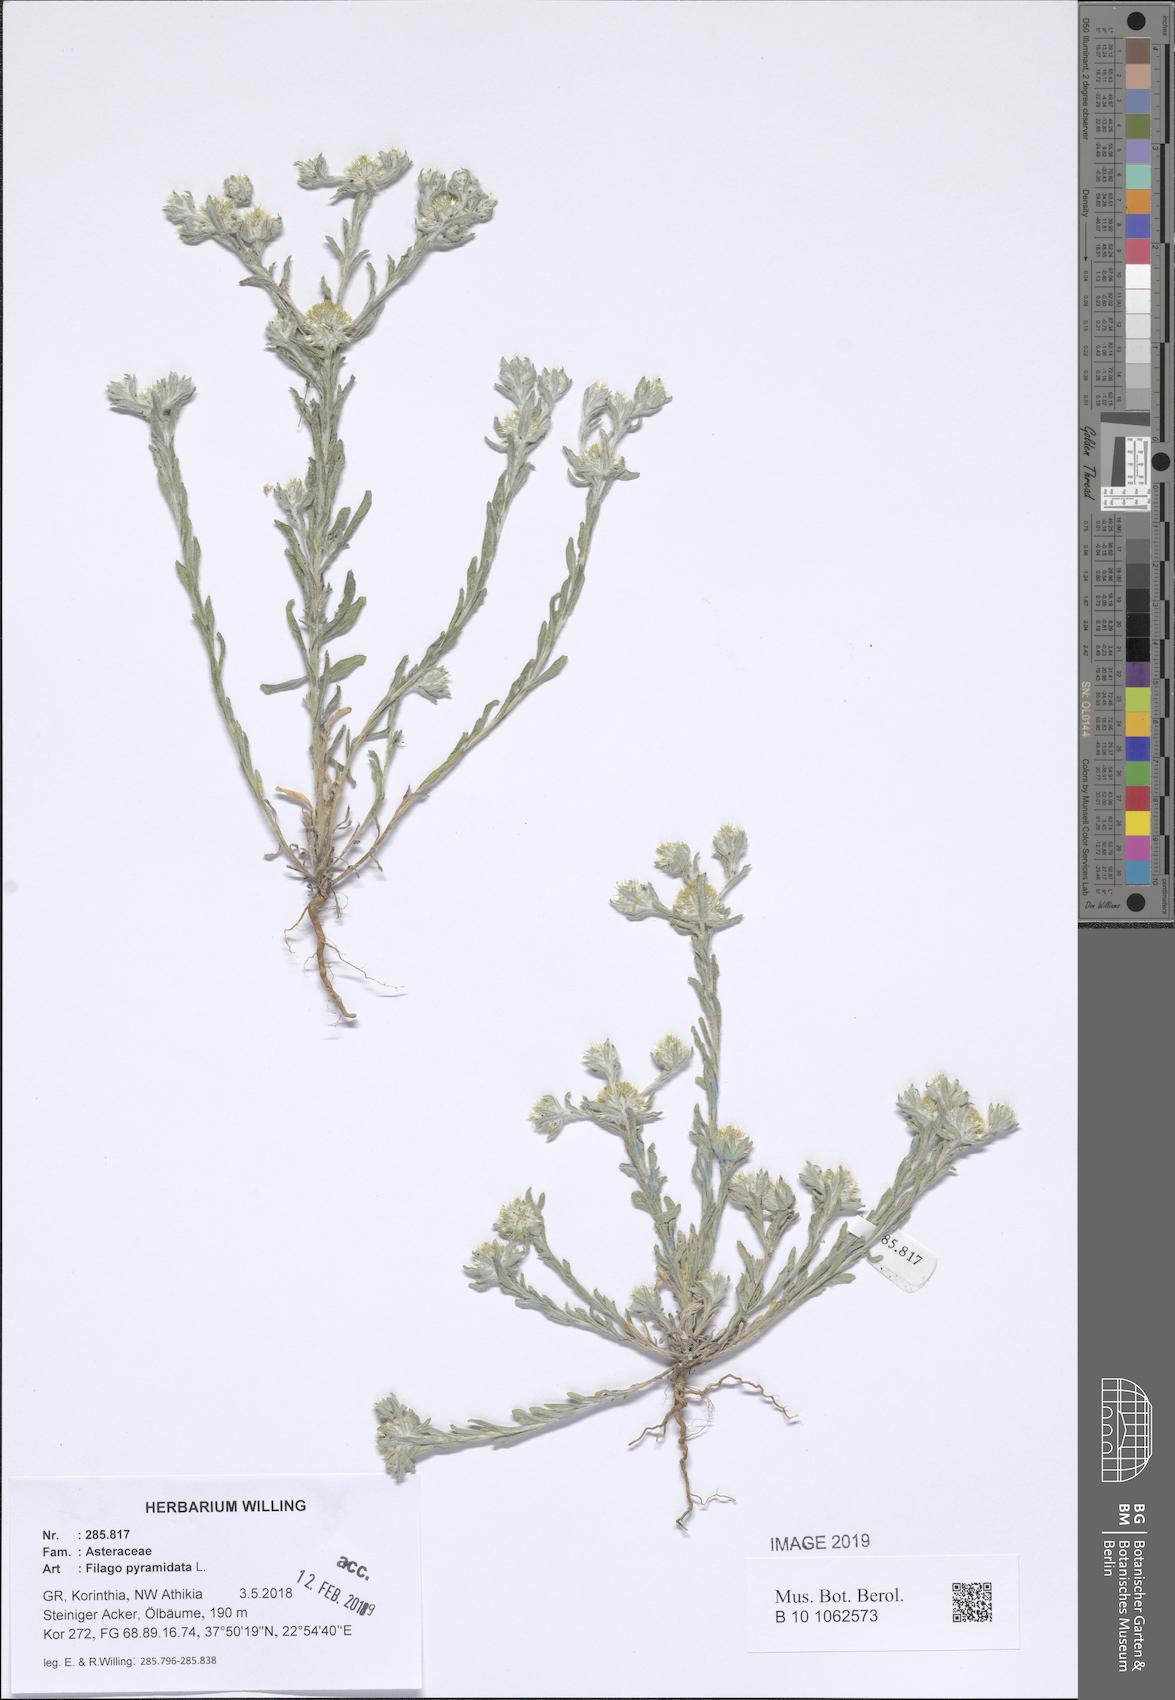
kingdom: Plantae
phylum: Tracheophyta
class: Magnoliopsida
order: Asterales
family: Asteraceae
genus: Filago
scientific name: Filago pyramidata
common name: Broad-leaved cudweed
